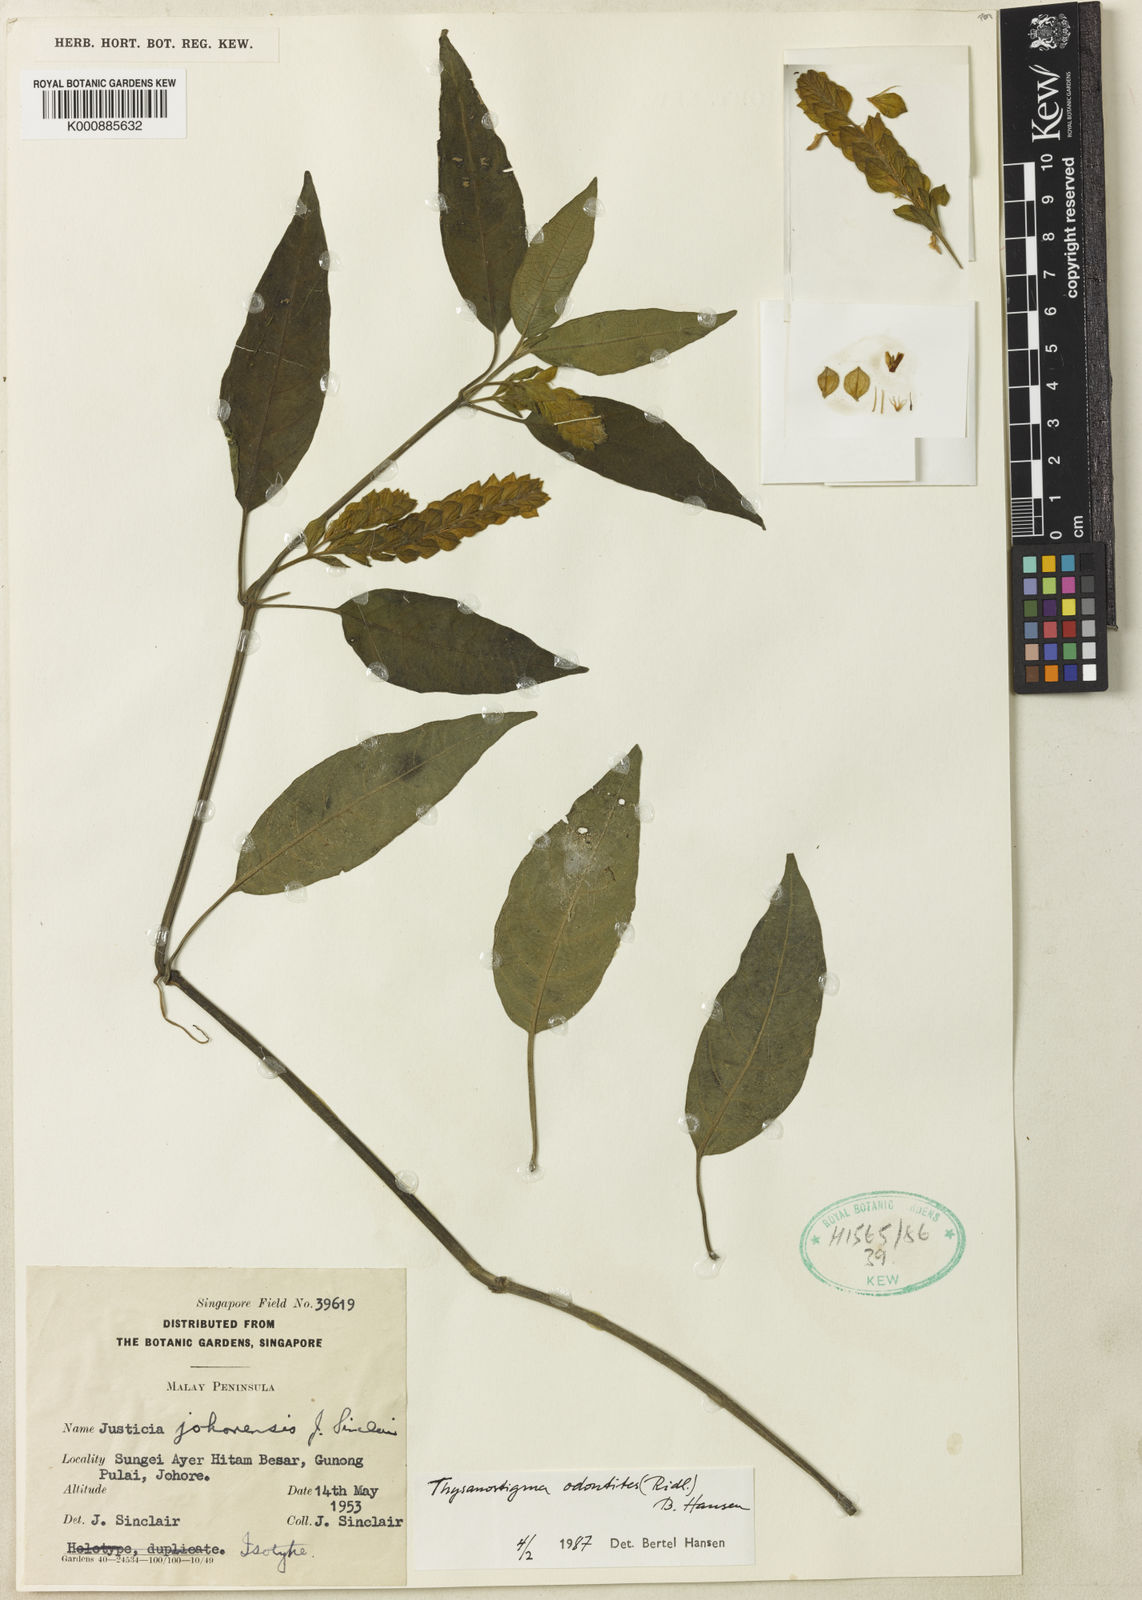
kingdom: Plantae
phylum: Tracheophyta
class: Magnoliopsida
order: Lamiales
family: Acanthaceae
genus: Thysanostigma
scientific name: Thysanostigma odontites
